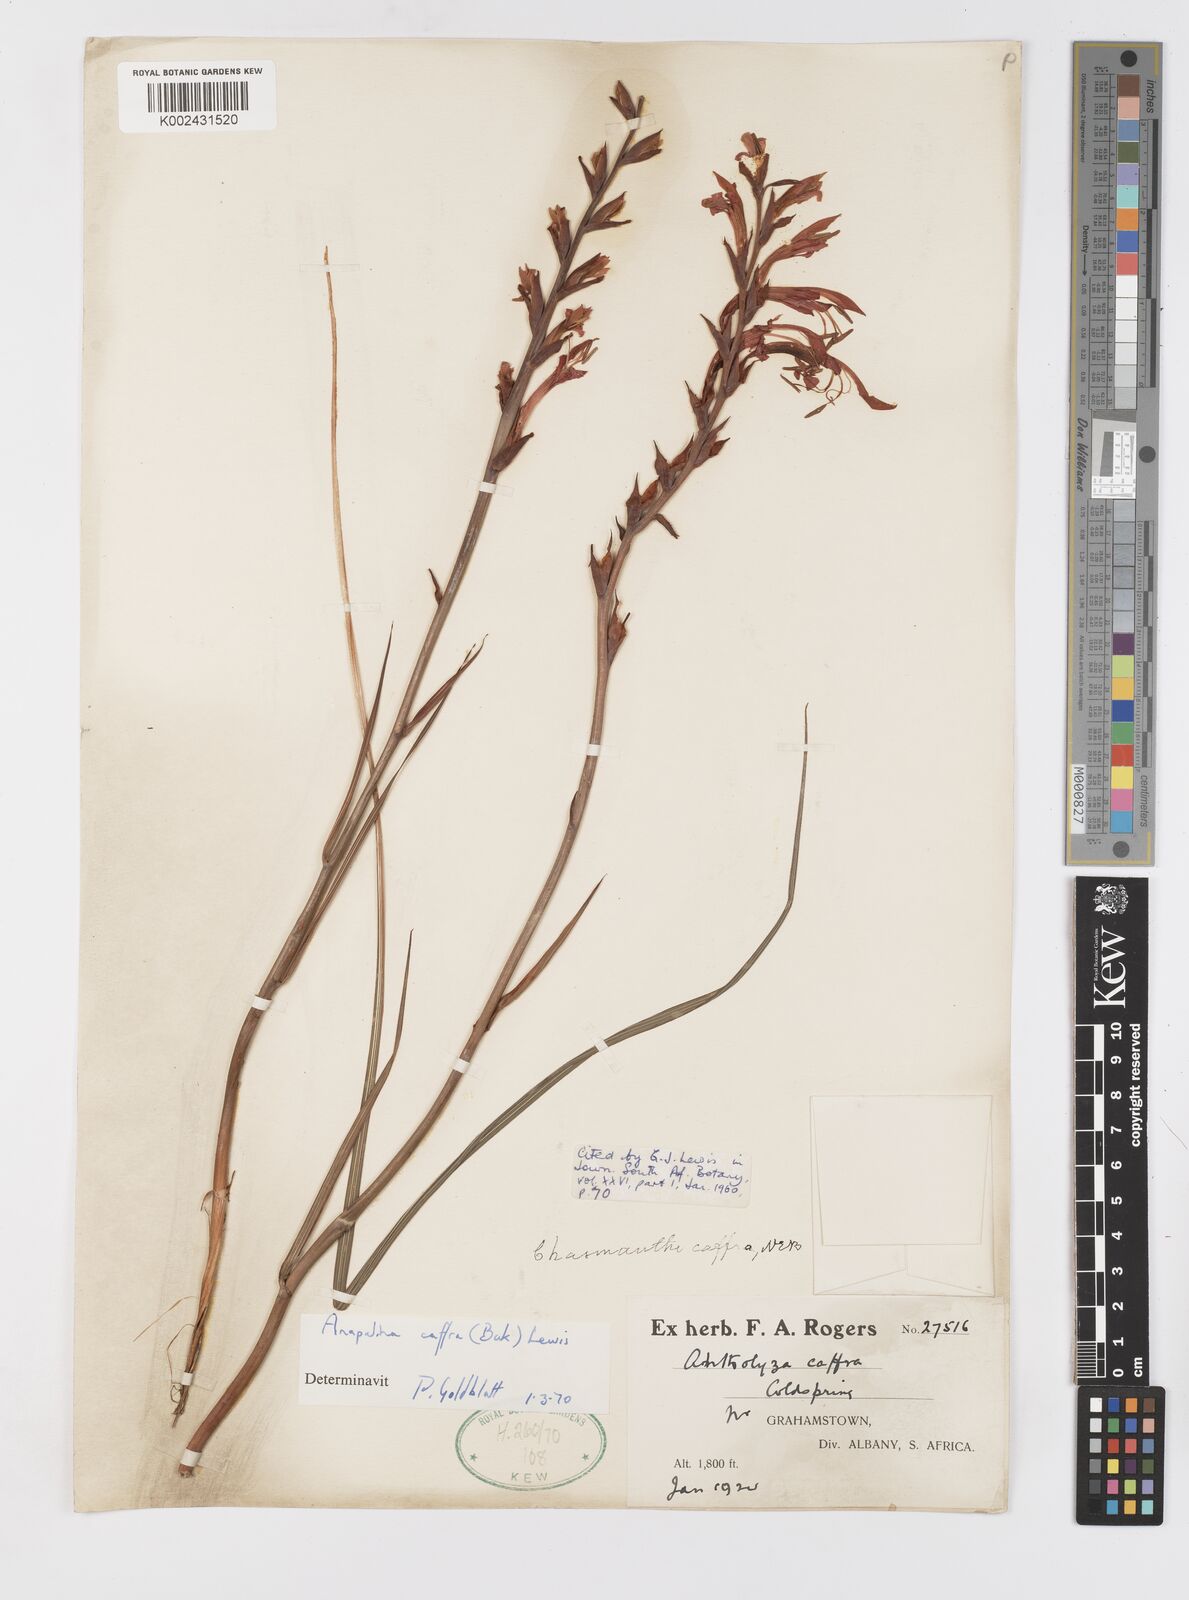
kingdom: Plantae
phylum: Tracheophyta
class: Liliopsida
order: Asparagales
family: Iridaceae
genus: Tritoniopsis
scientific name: Tritoniopsis caffra
